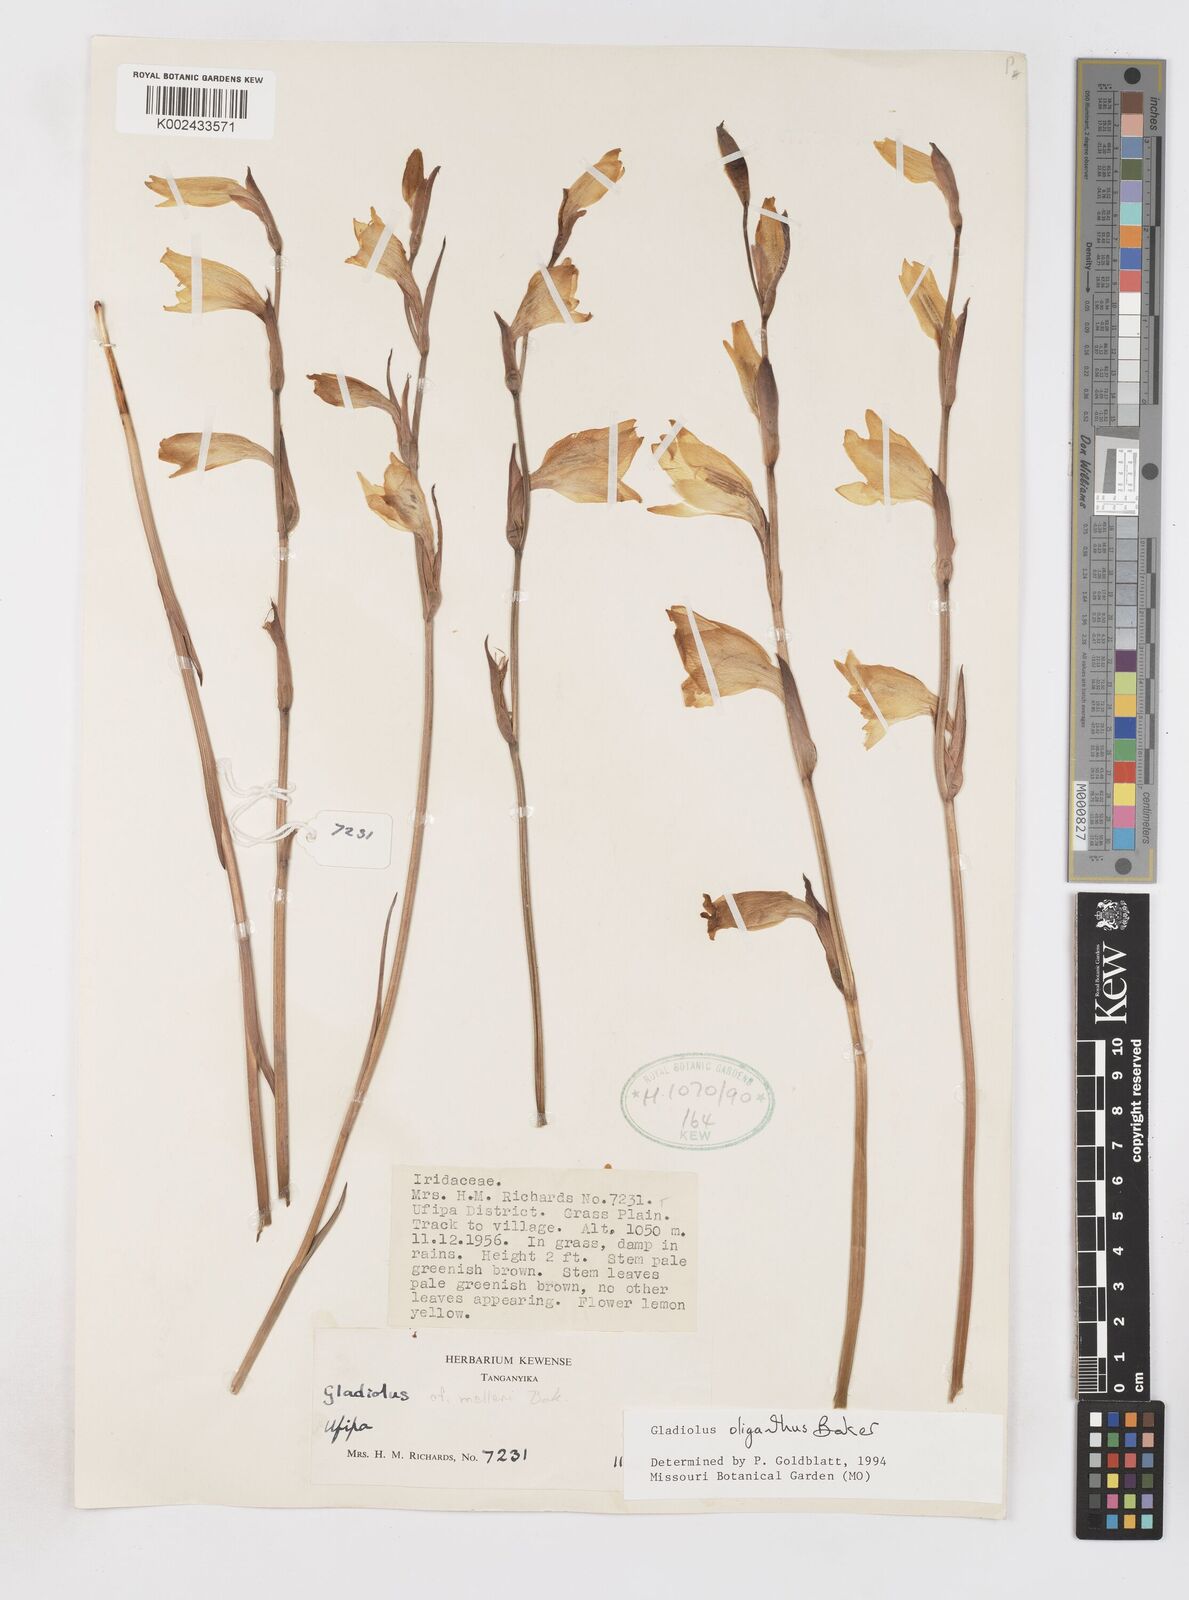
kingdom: Plantae
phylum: Tracheophyta
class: Liliopsida
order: Asparagales
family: Iridaceae
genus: Gladiolus
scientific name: Gladiolus oliganthus
